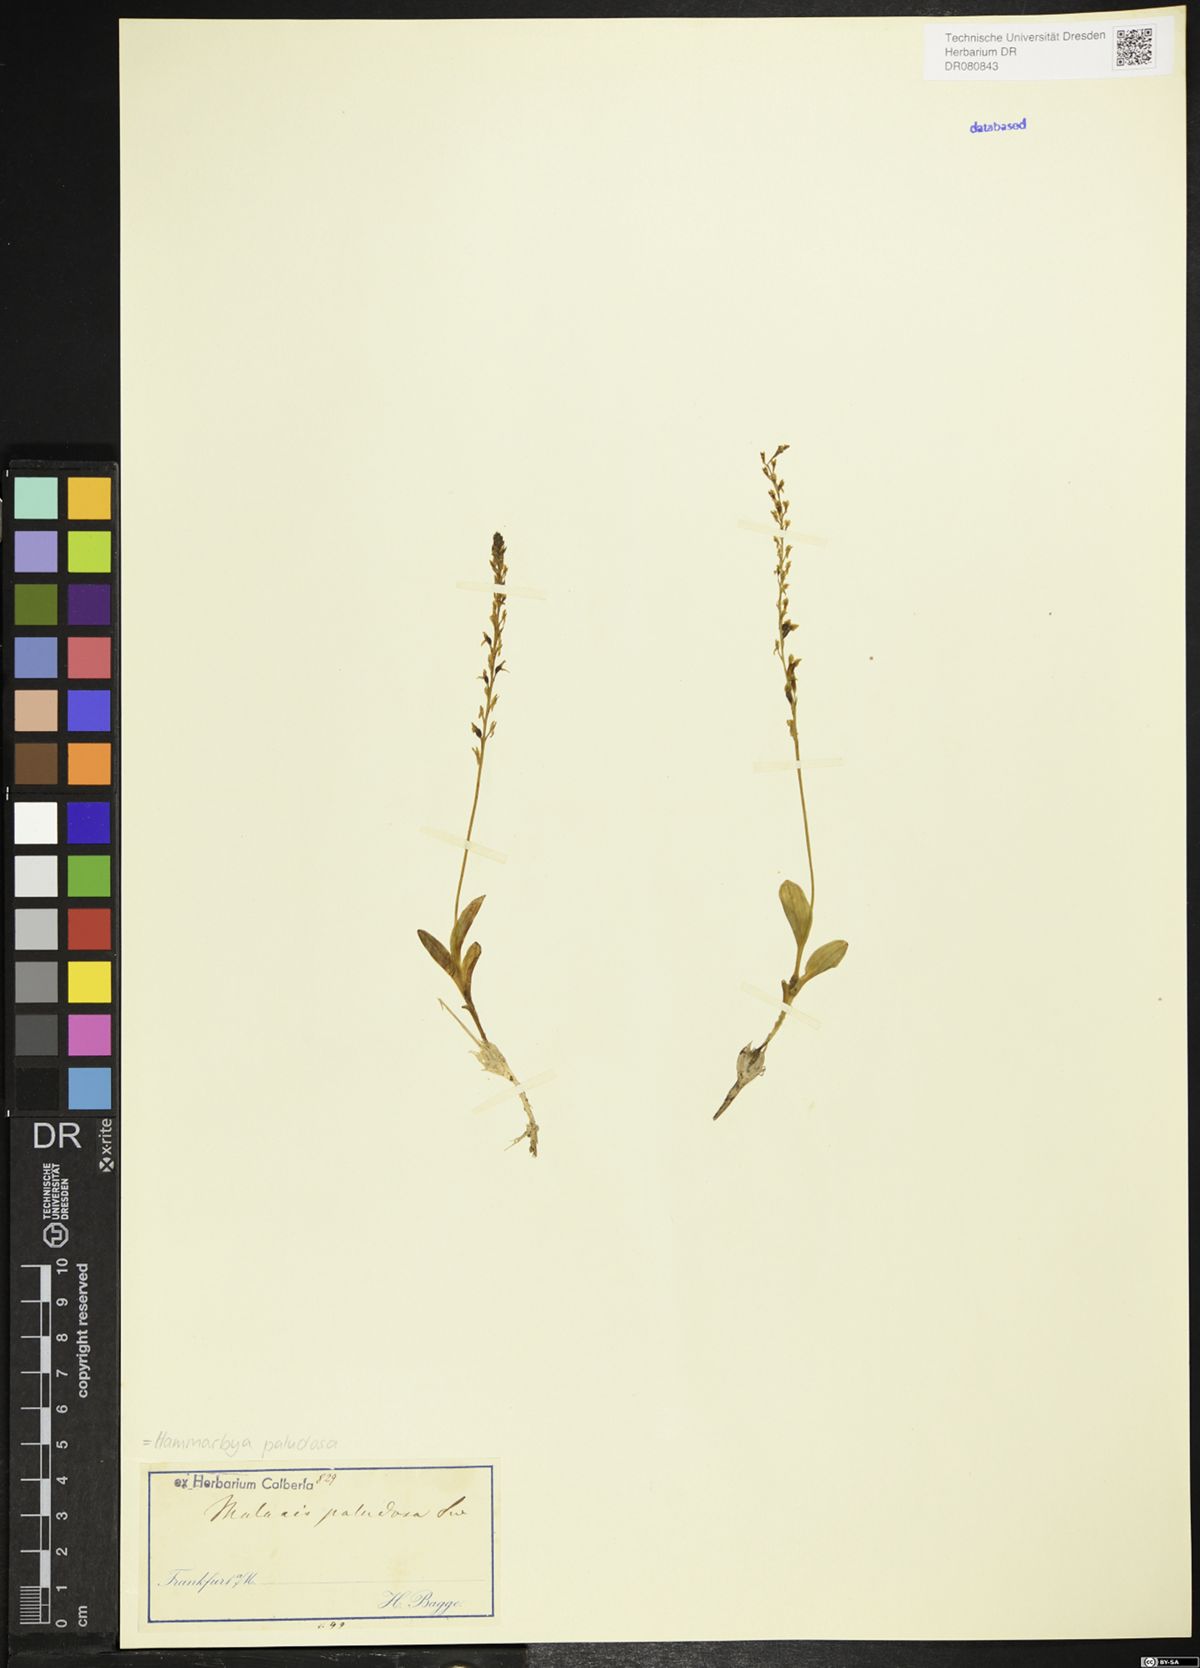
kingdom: Plantae
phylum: Tracheophyta
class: Liliopsida
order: Asparagales
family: Orchidaceae
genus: Hammarbya
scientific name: Hammarbya paludosa
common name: Bog orchid
